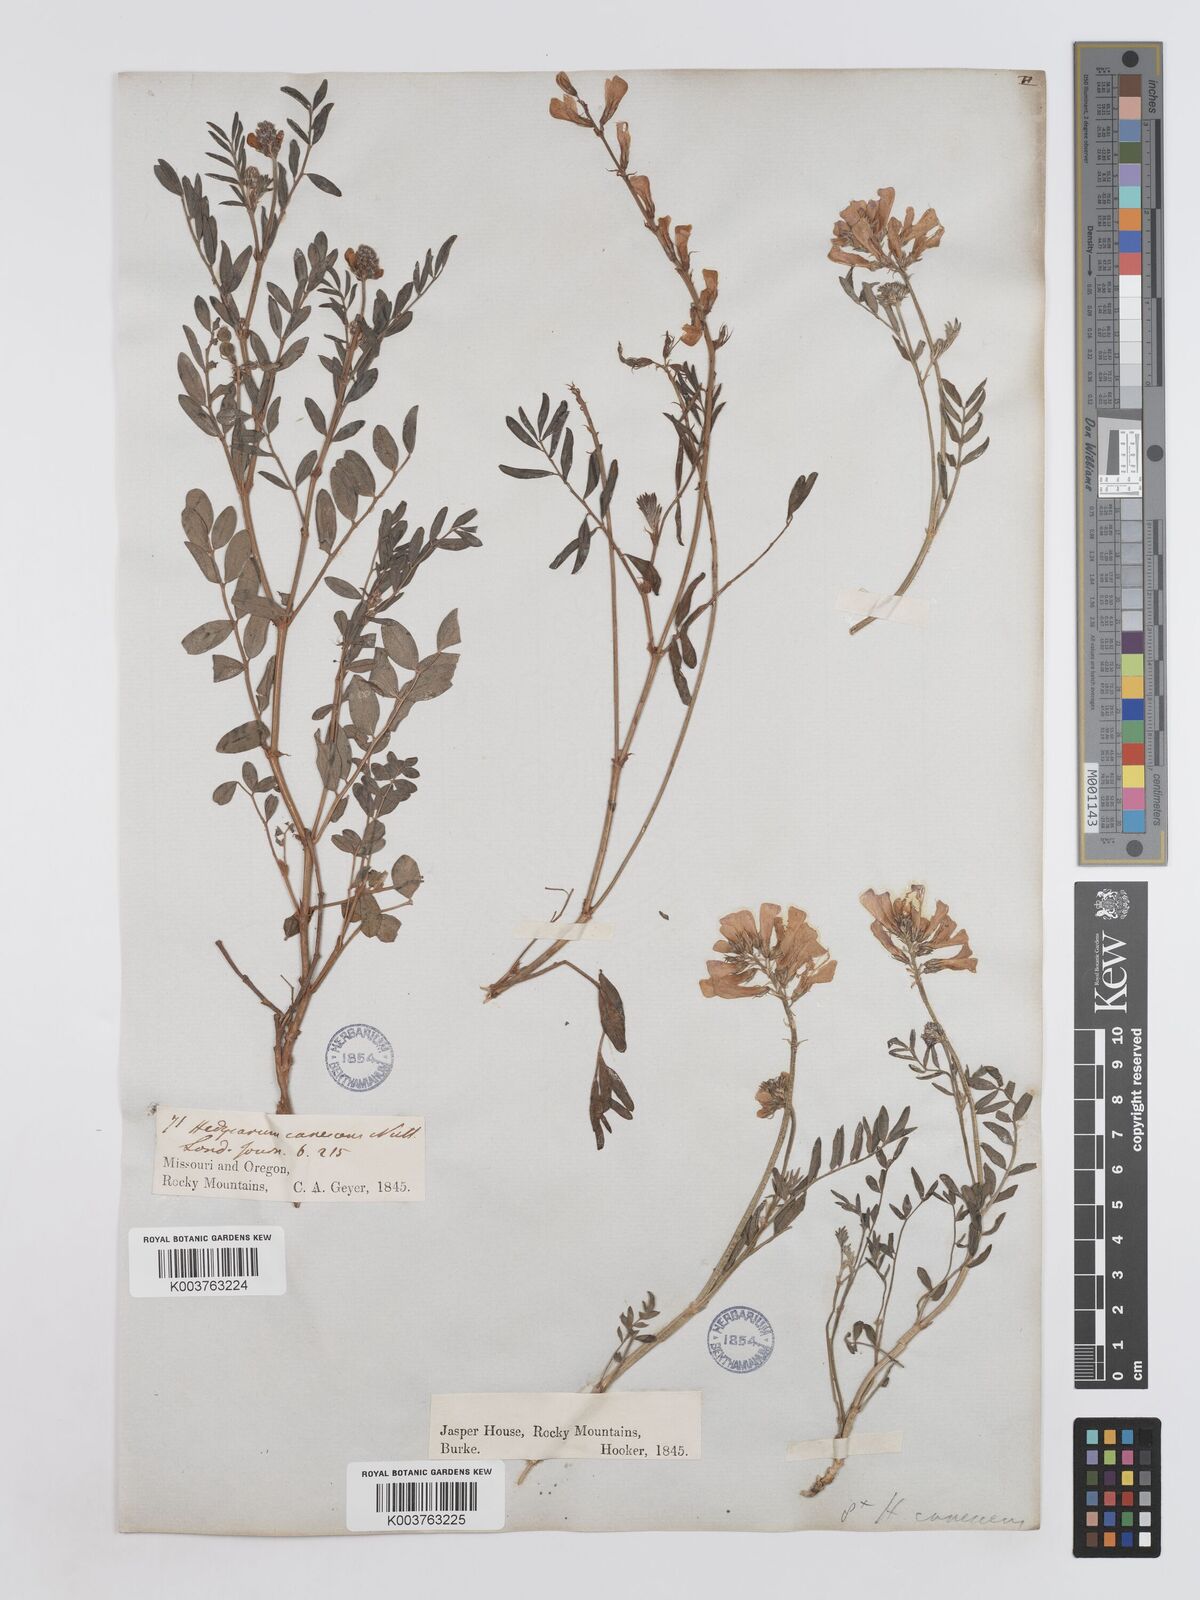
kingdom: Plantae
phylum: Tracheophyta
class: Magnoliopsida
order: Fabales
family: Fabaceae
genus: Hedysarum
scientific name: Hedysarum boreale
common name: Northern sweet-vetch
